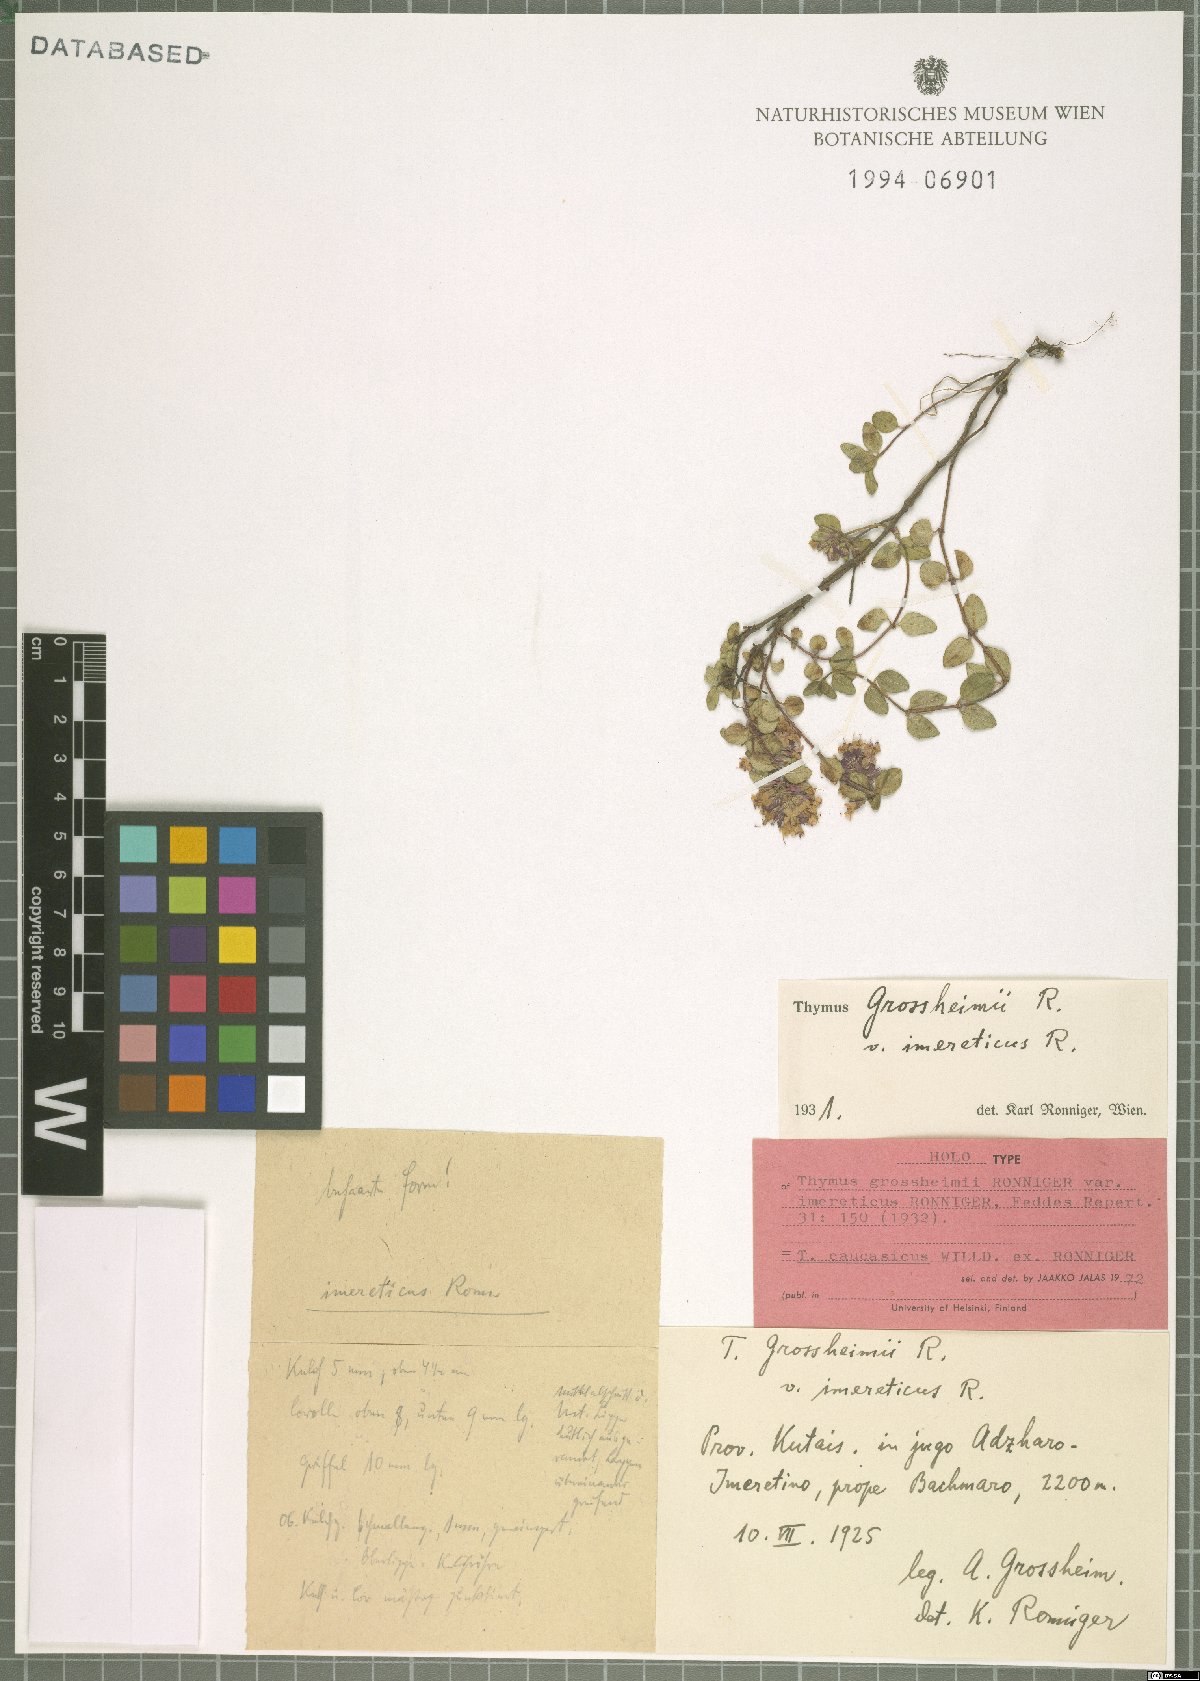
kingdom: Plantae
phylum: Tracheophyta
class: Magnoliopsida
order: Lamiales
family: Lamiaceae
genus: Thymus
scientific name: Thymus praecox
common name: Wild thyme
